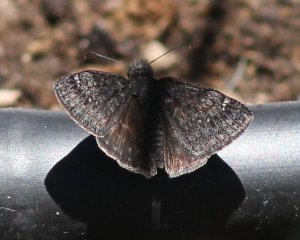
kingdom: Animalia
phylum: Arthropoda
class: Insecta
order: Lepidoptera
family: Hesperiidae
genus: Gesta
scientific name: Gesta
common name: Persius Duskywing
